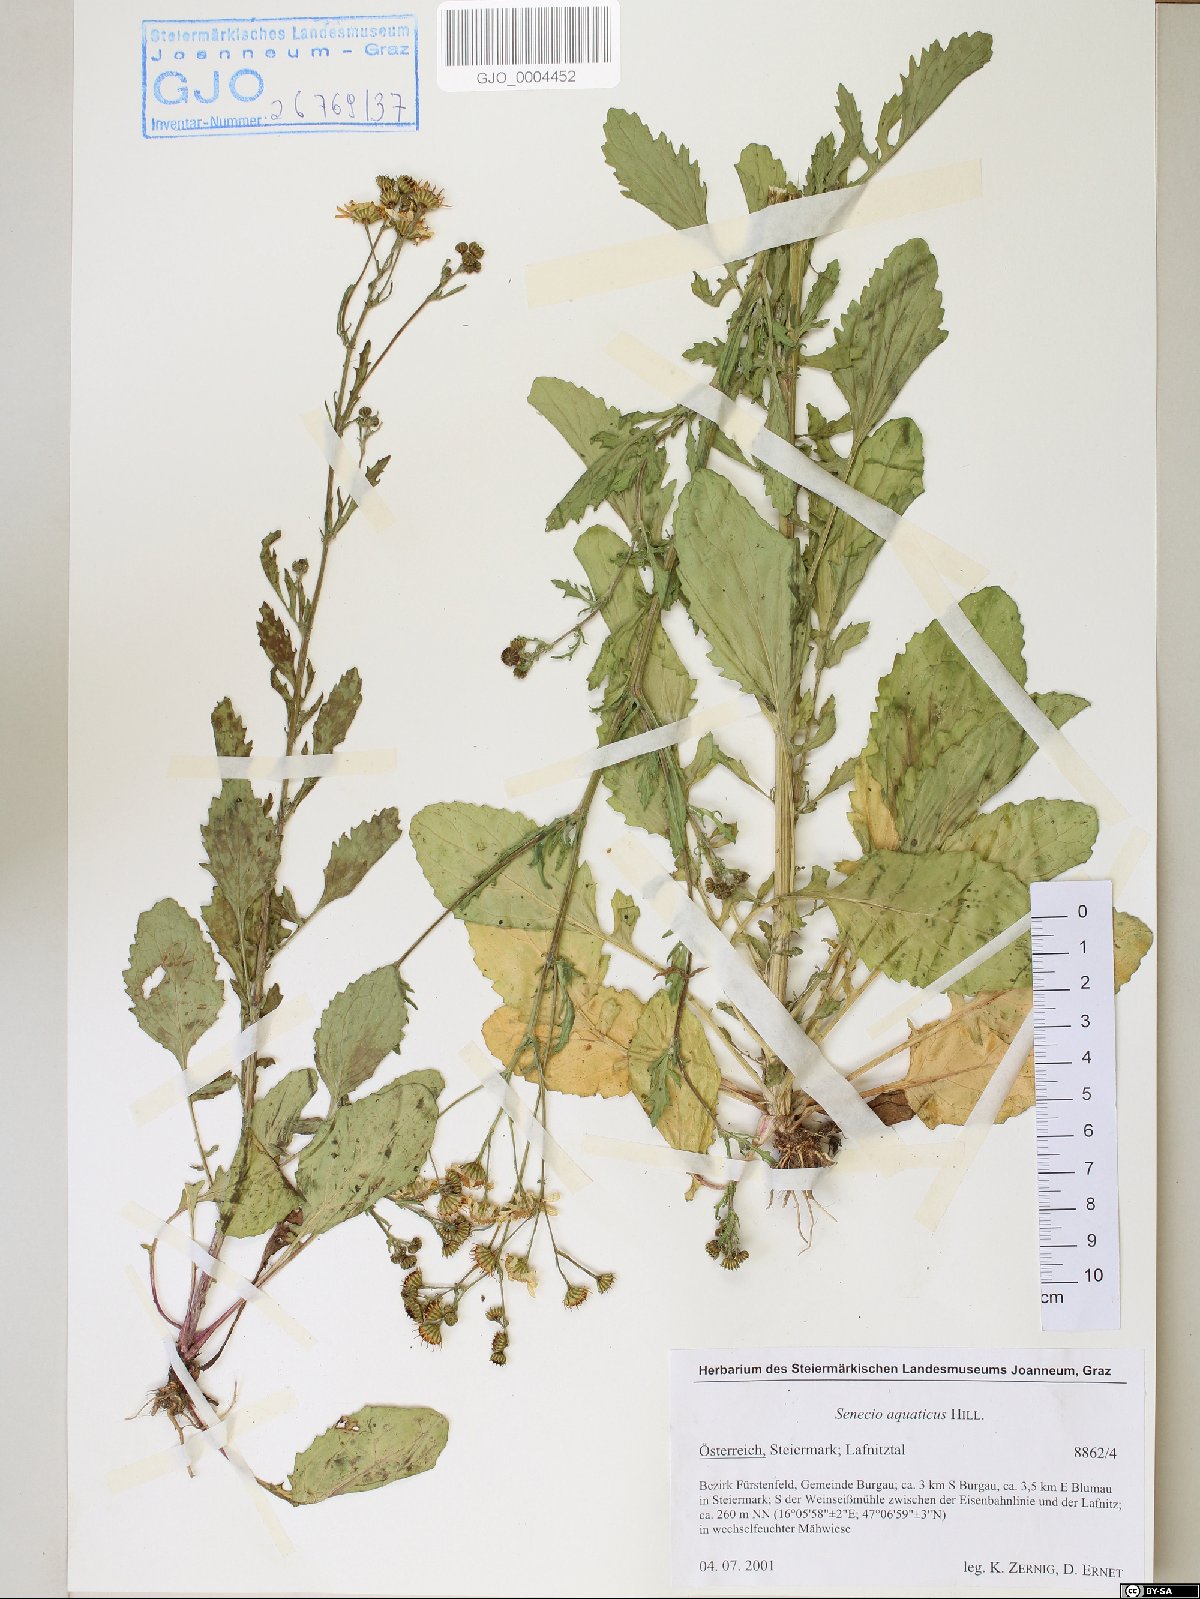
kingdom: Plantae
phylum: Tracheophyta
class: Magnoliopsida
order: Asterales
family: Asteraceae
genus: Jacobaea
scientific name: Jacobaea aquatica
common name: Water ragwort
